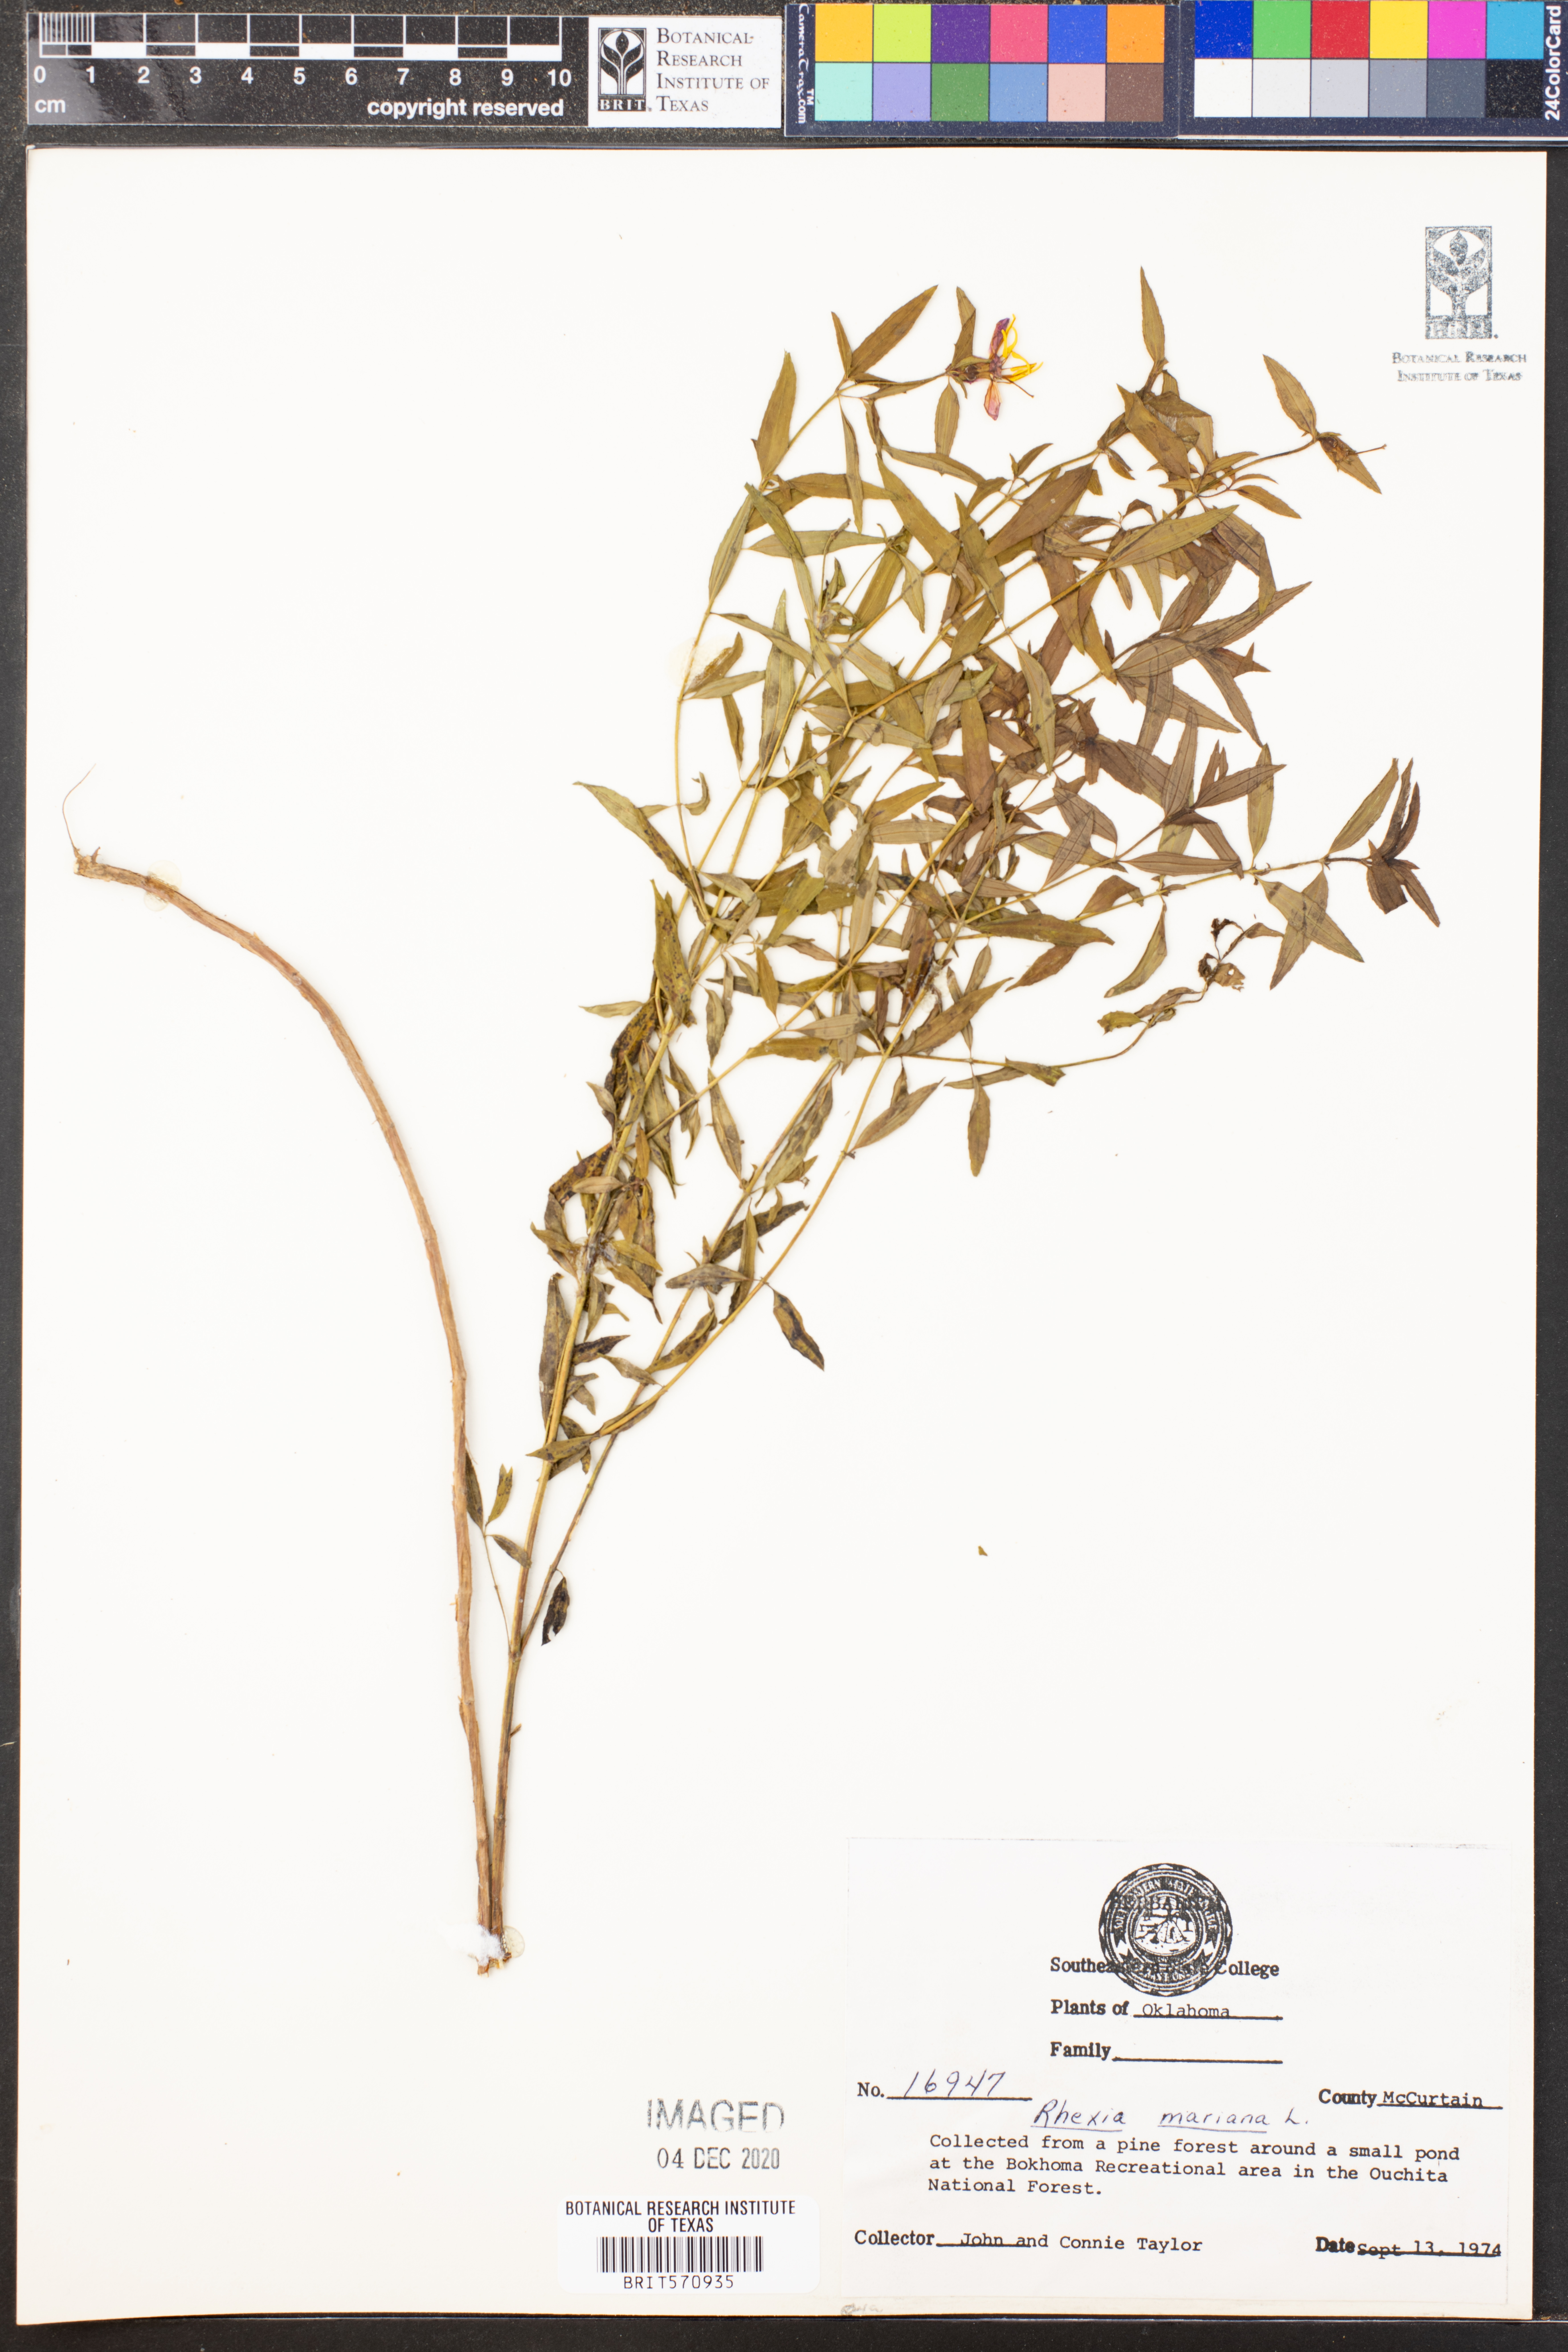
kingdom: Plantae
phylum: Tracheophyta
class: Magnoliopsida
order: Myrtales
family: Melastomataceae
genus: Rhexia
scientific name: Rhexia mariana
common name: Dull meadow-pitcher
